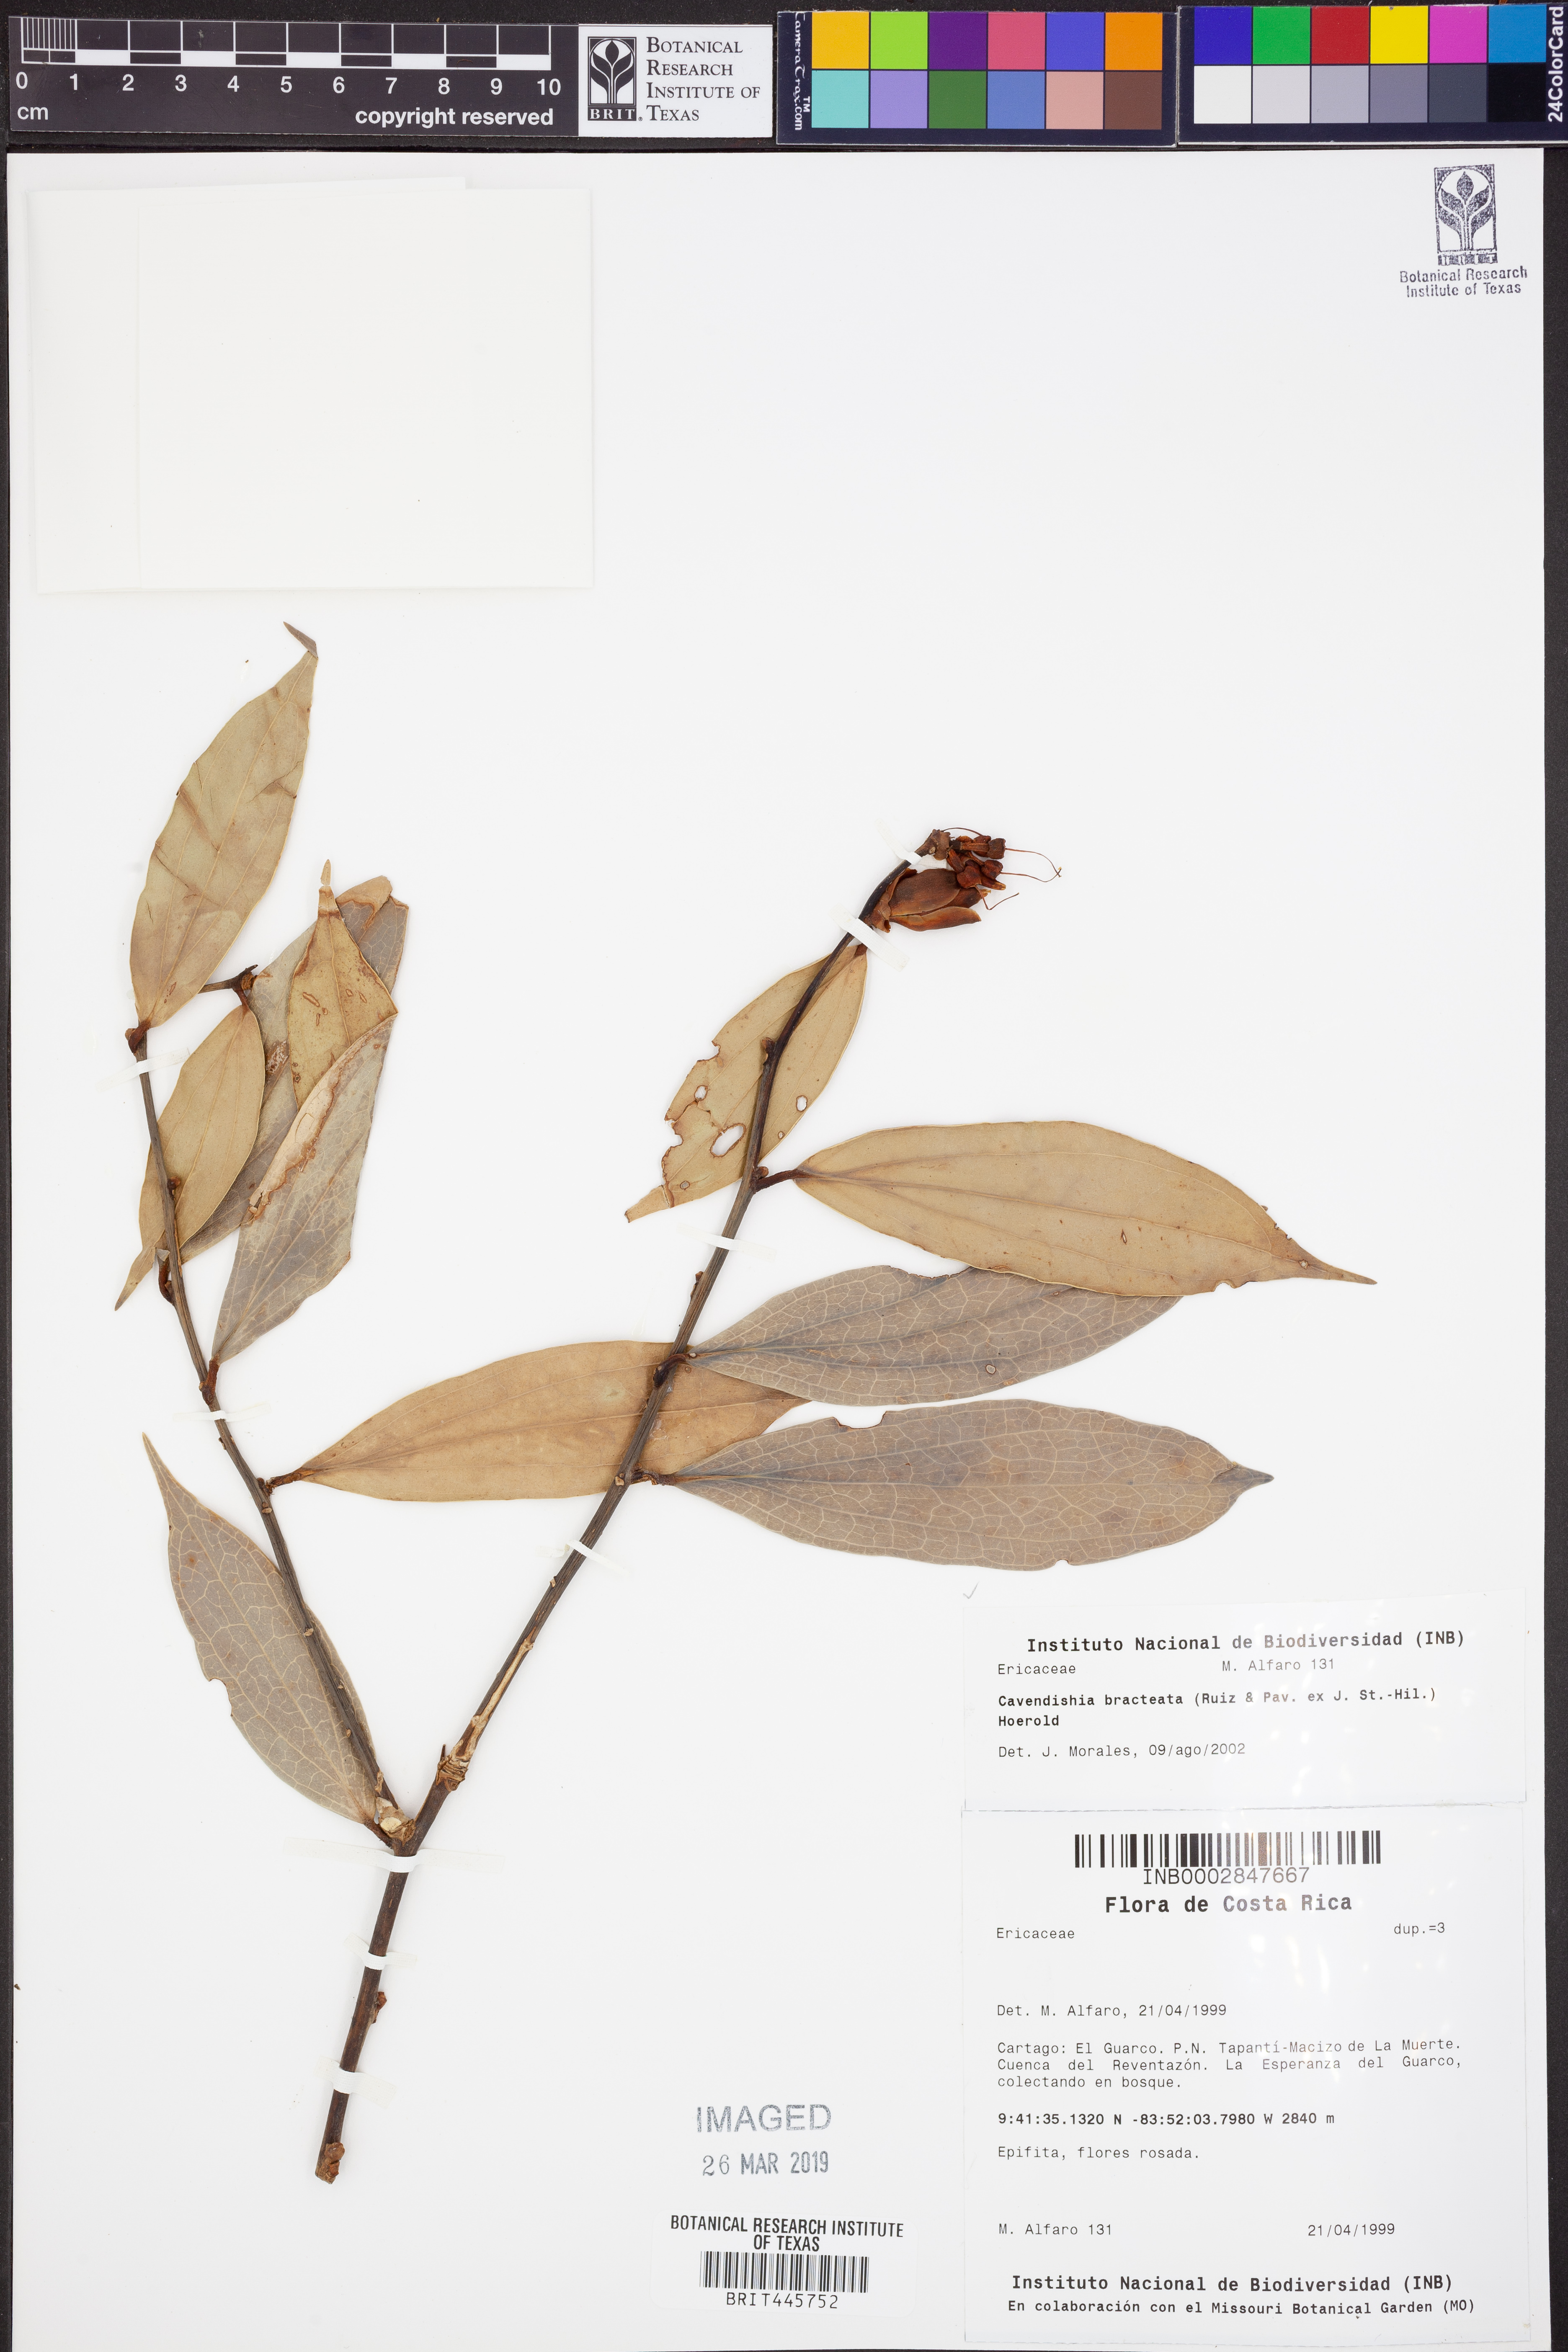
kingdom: Plantae
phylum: Tracheophyta
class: Magnoliopsida
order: Ericales
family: Ericaceae
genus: Cavendishia
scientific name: Cavendishia bracteata
